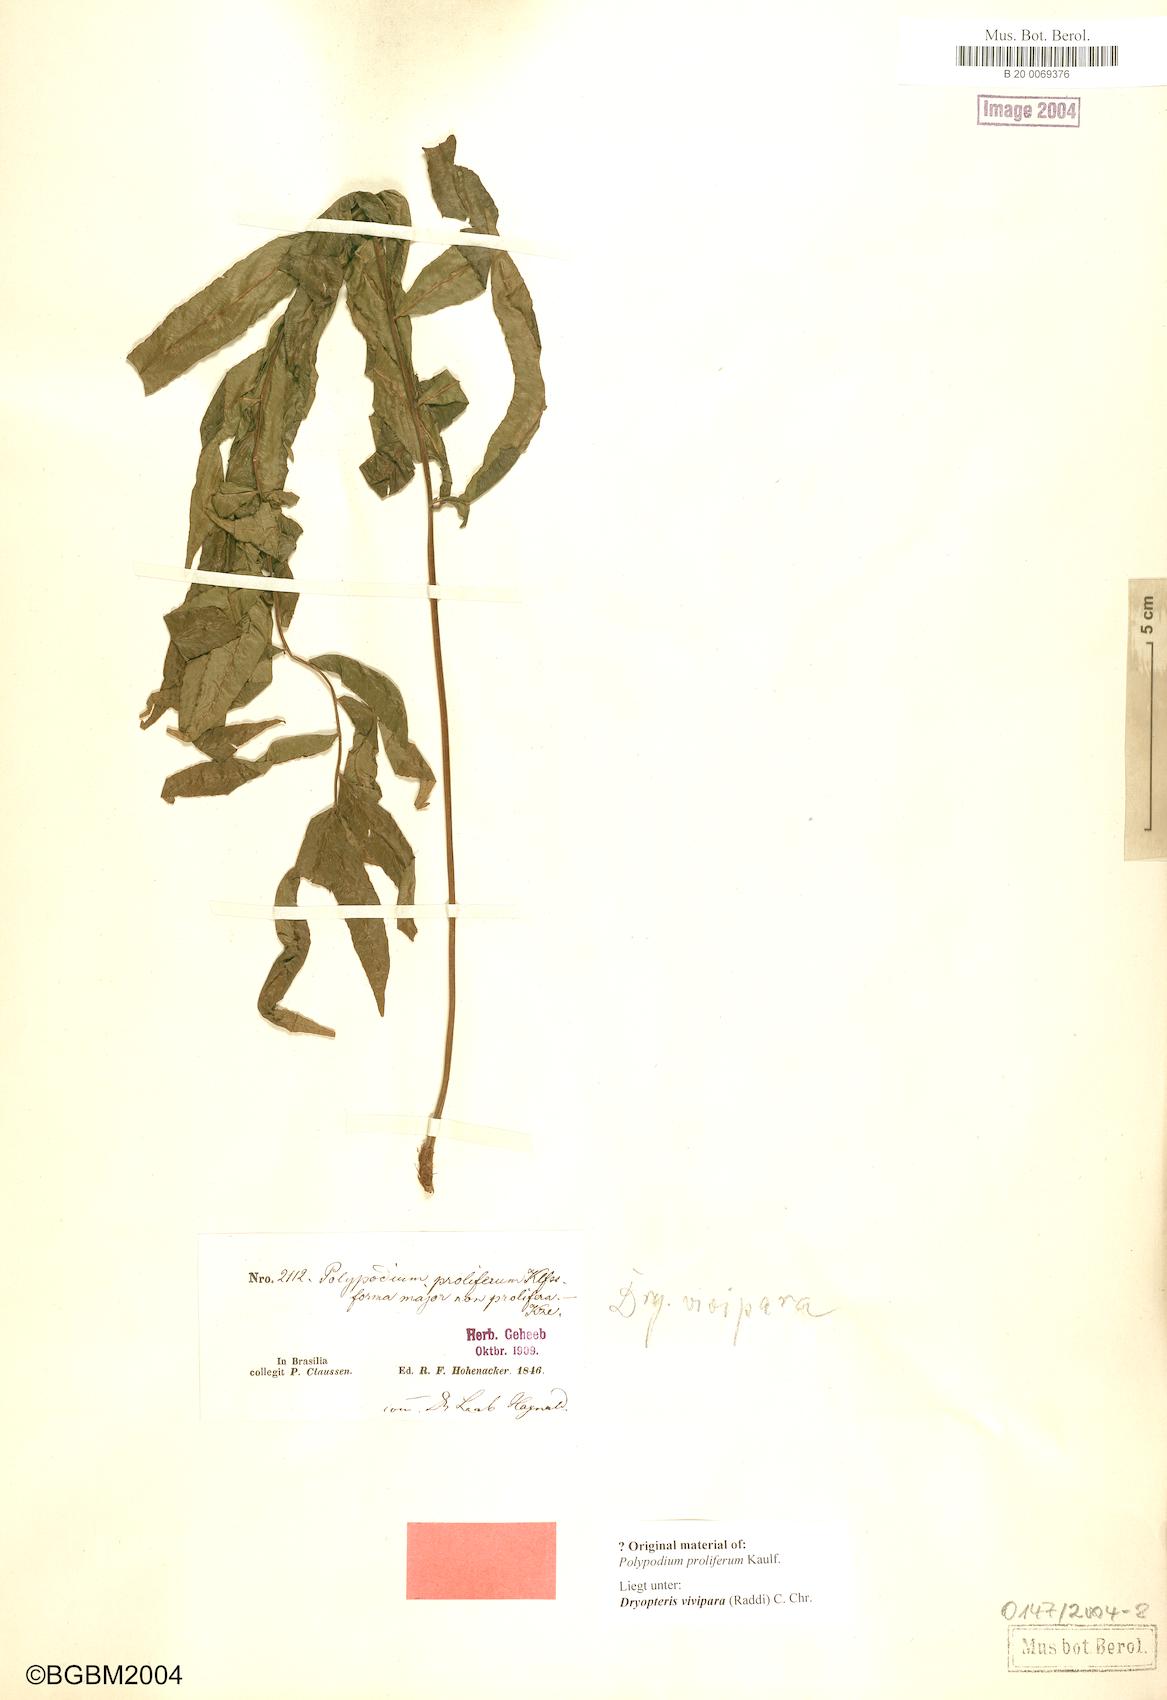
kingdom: Plantae
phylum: Tracheophyta
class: Polypodiopsida
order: Polypodiales
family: Thelypteridaceae
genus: Goniopteris
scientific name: Goniopteris vivipara
